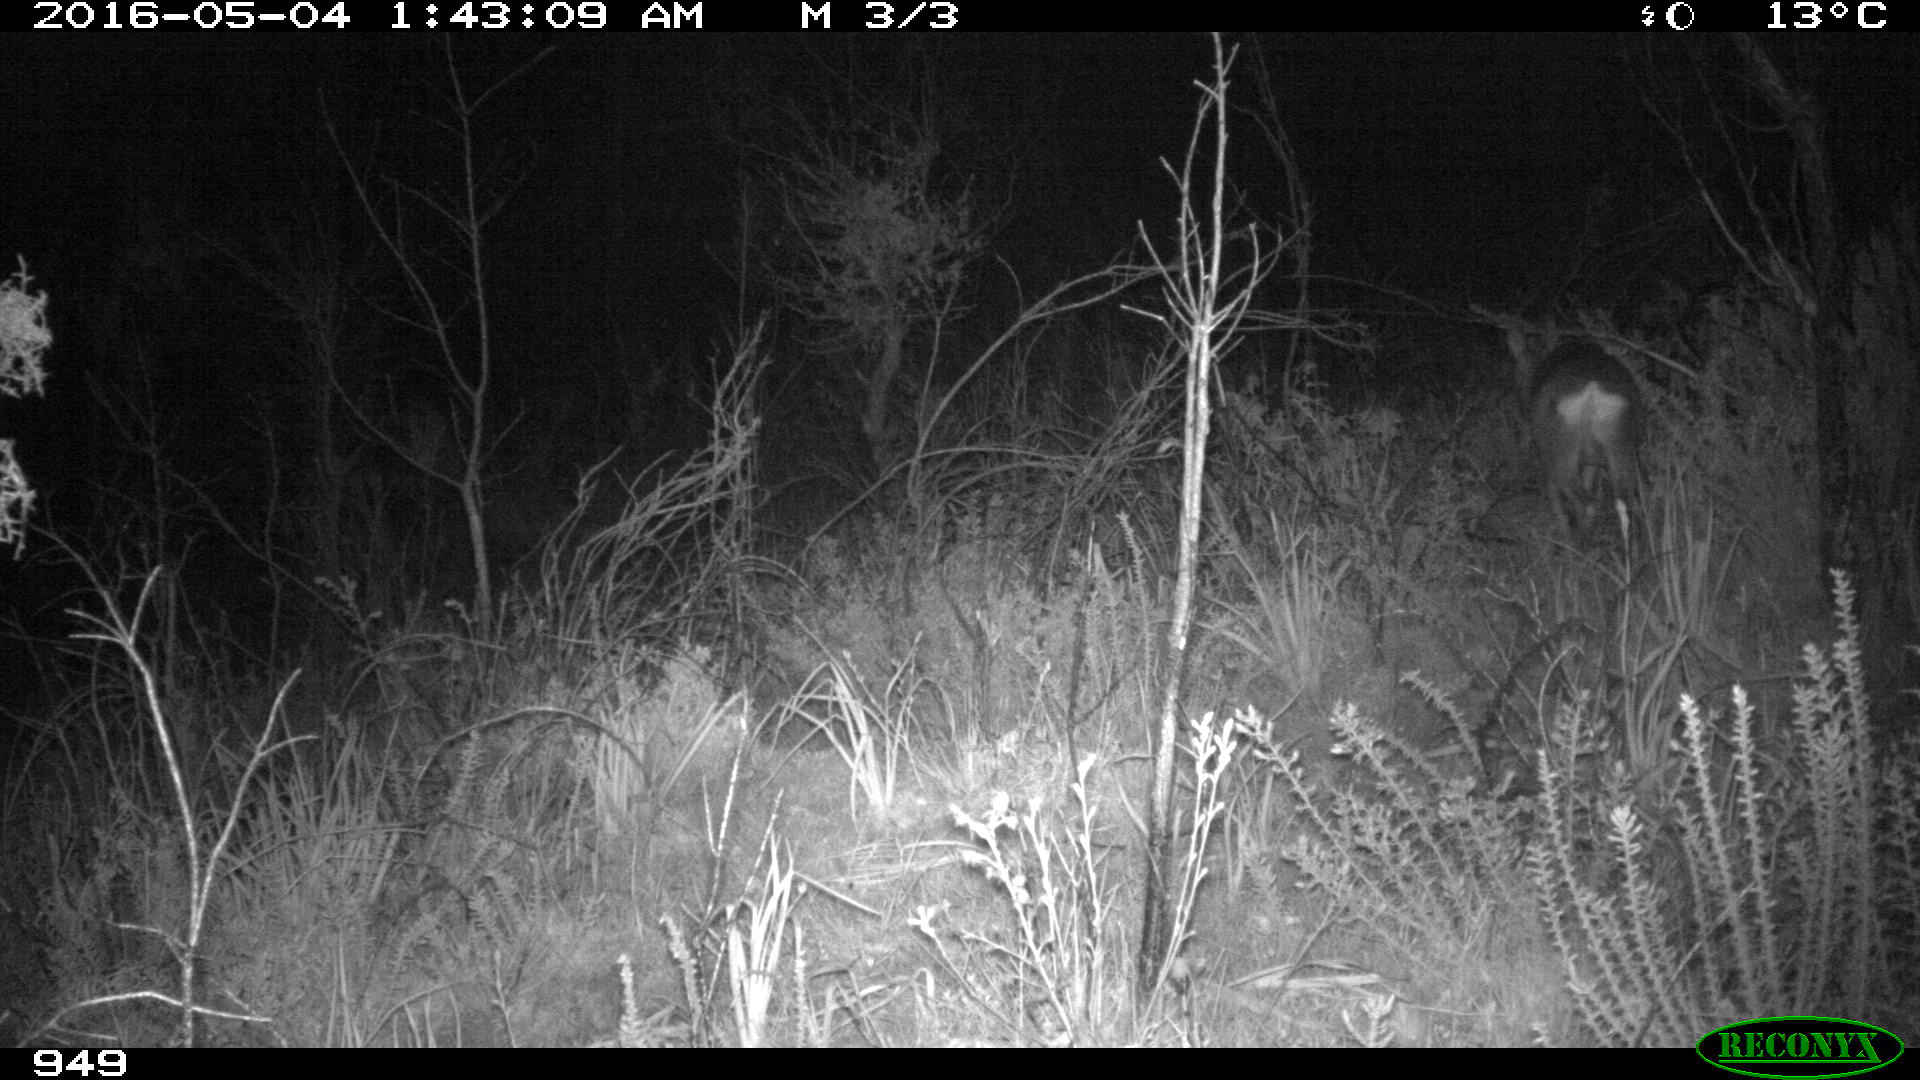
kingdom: Animalia
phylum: Chordata
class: Mammalia
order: Artiodactyla
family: Cervidae
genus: Capreolus
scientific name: Capreolus capreolus
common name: Western roe deer
